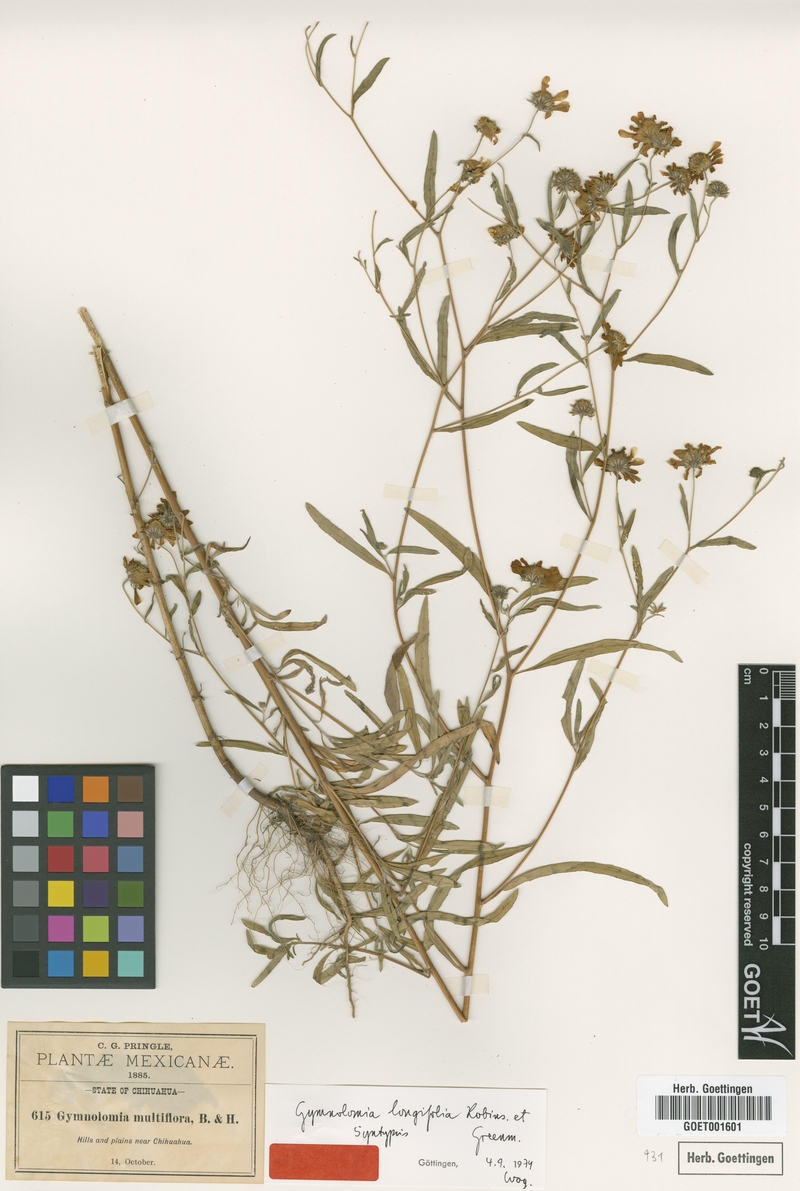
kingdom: Plantae
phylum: Tracheophyta
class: Magnoliopsida
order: Asterales
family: Asteraceae
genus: Heliomeris
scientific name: Heliomeris longifolia
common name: Longleaf false goldeneye
